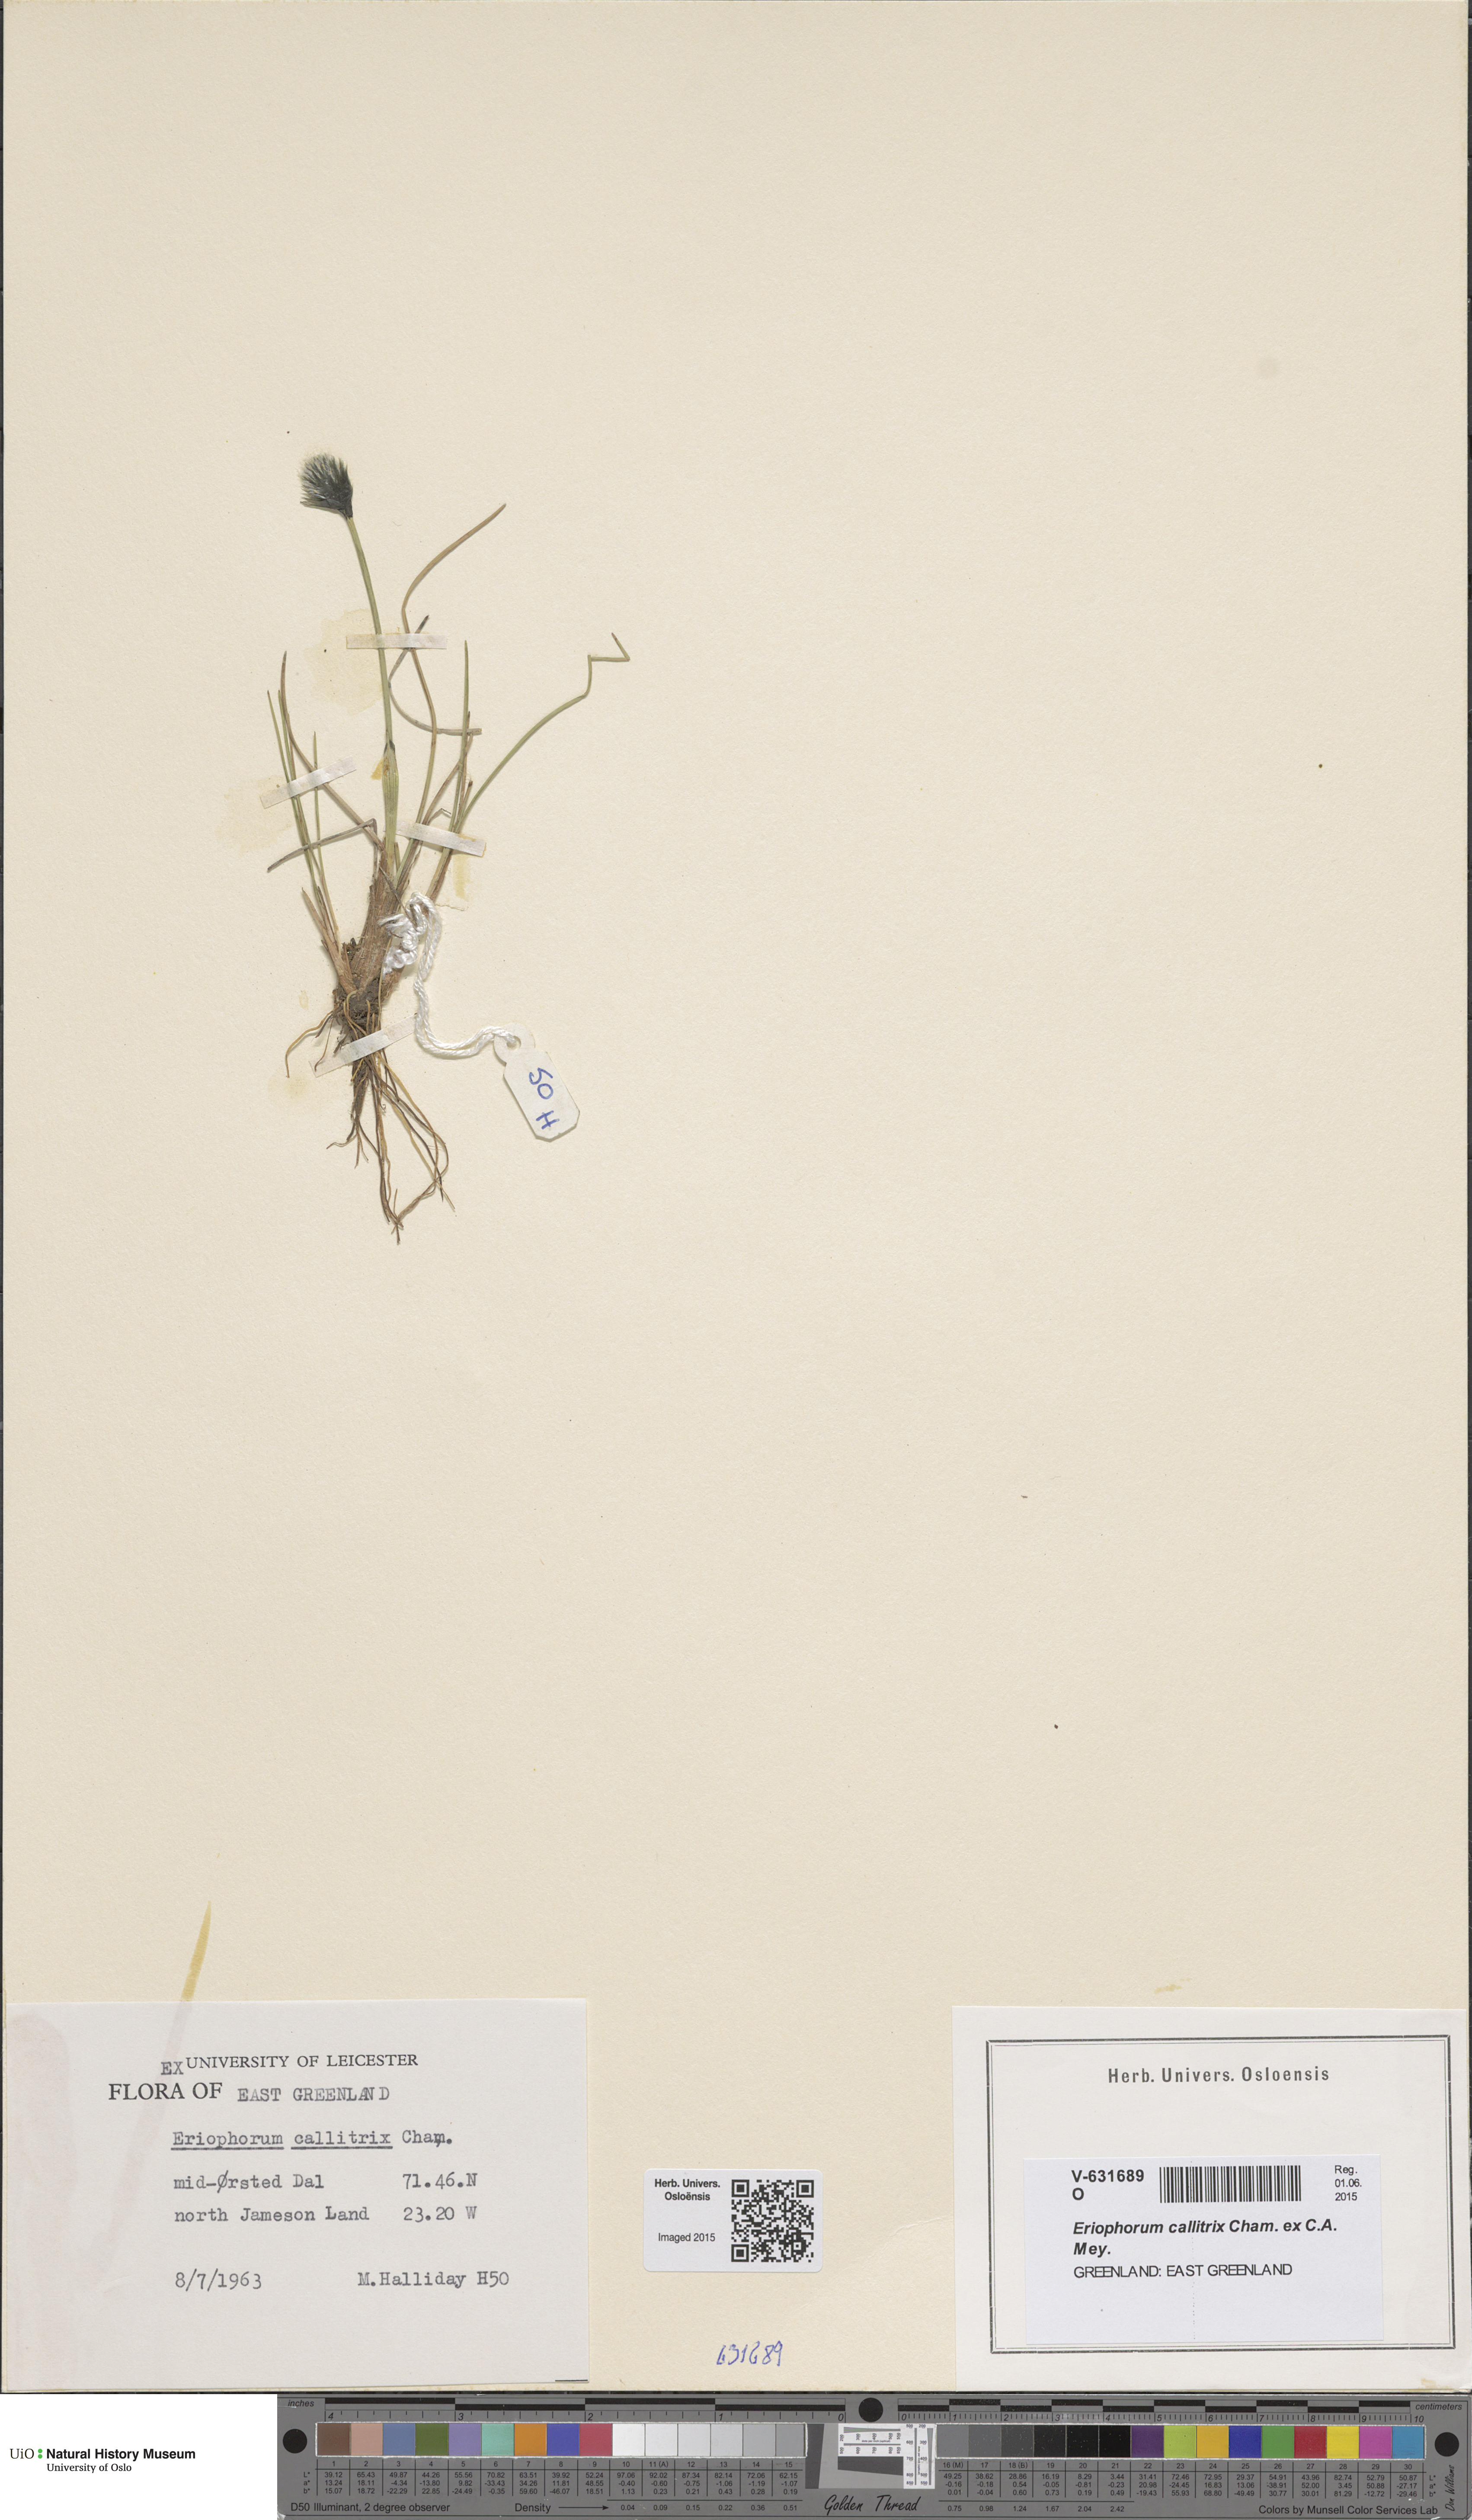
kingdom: Plantae
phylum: Tracheophyta
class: Liliopsida
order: Poales
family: Cyperaceae
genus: Eriophorum
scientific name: Eriophorum callitrix
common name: Arctic cottongrass
